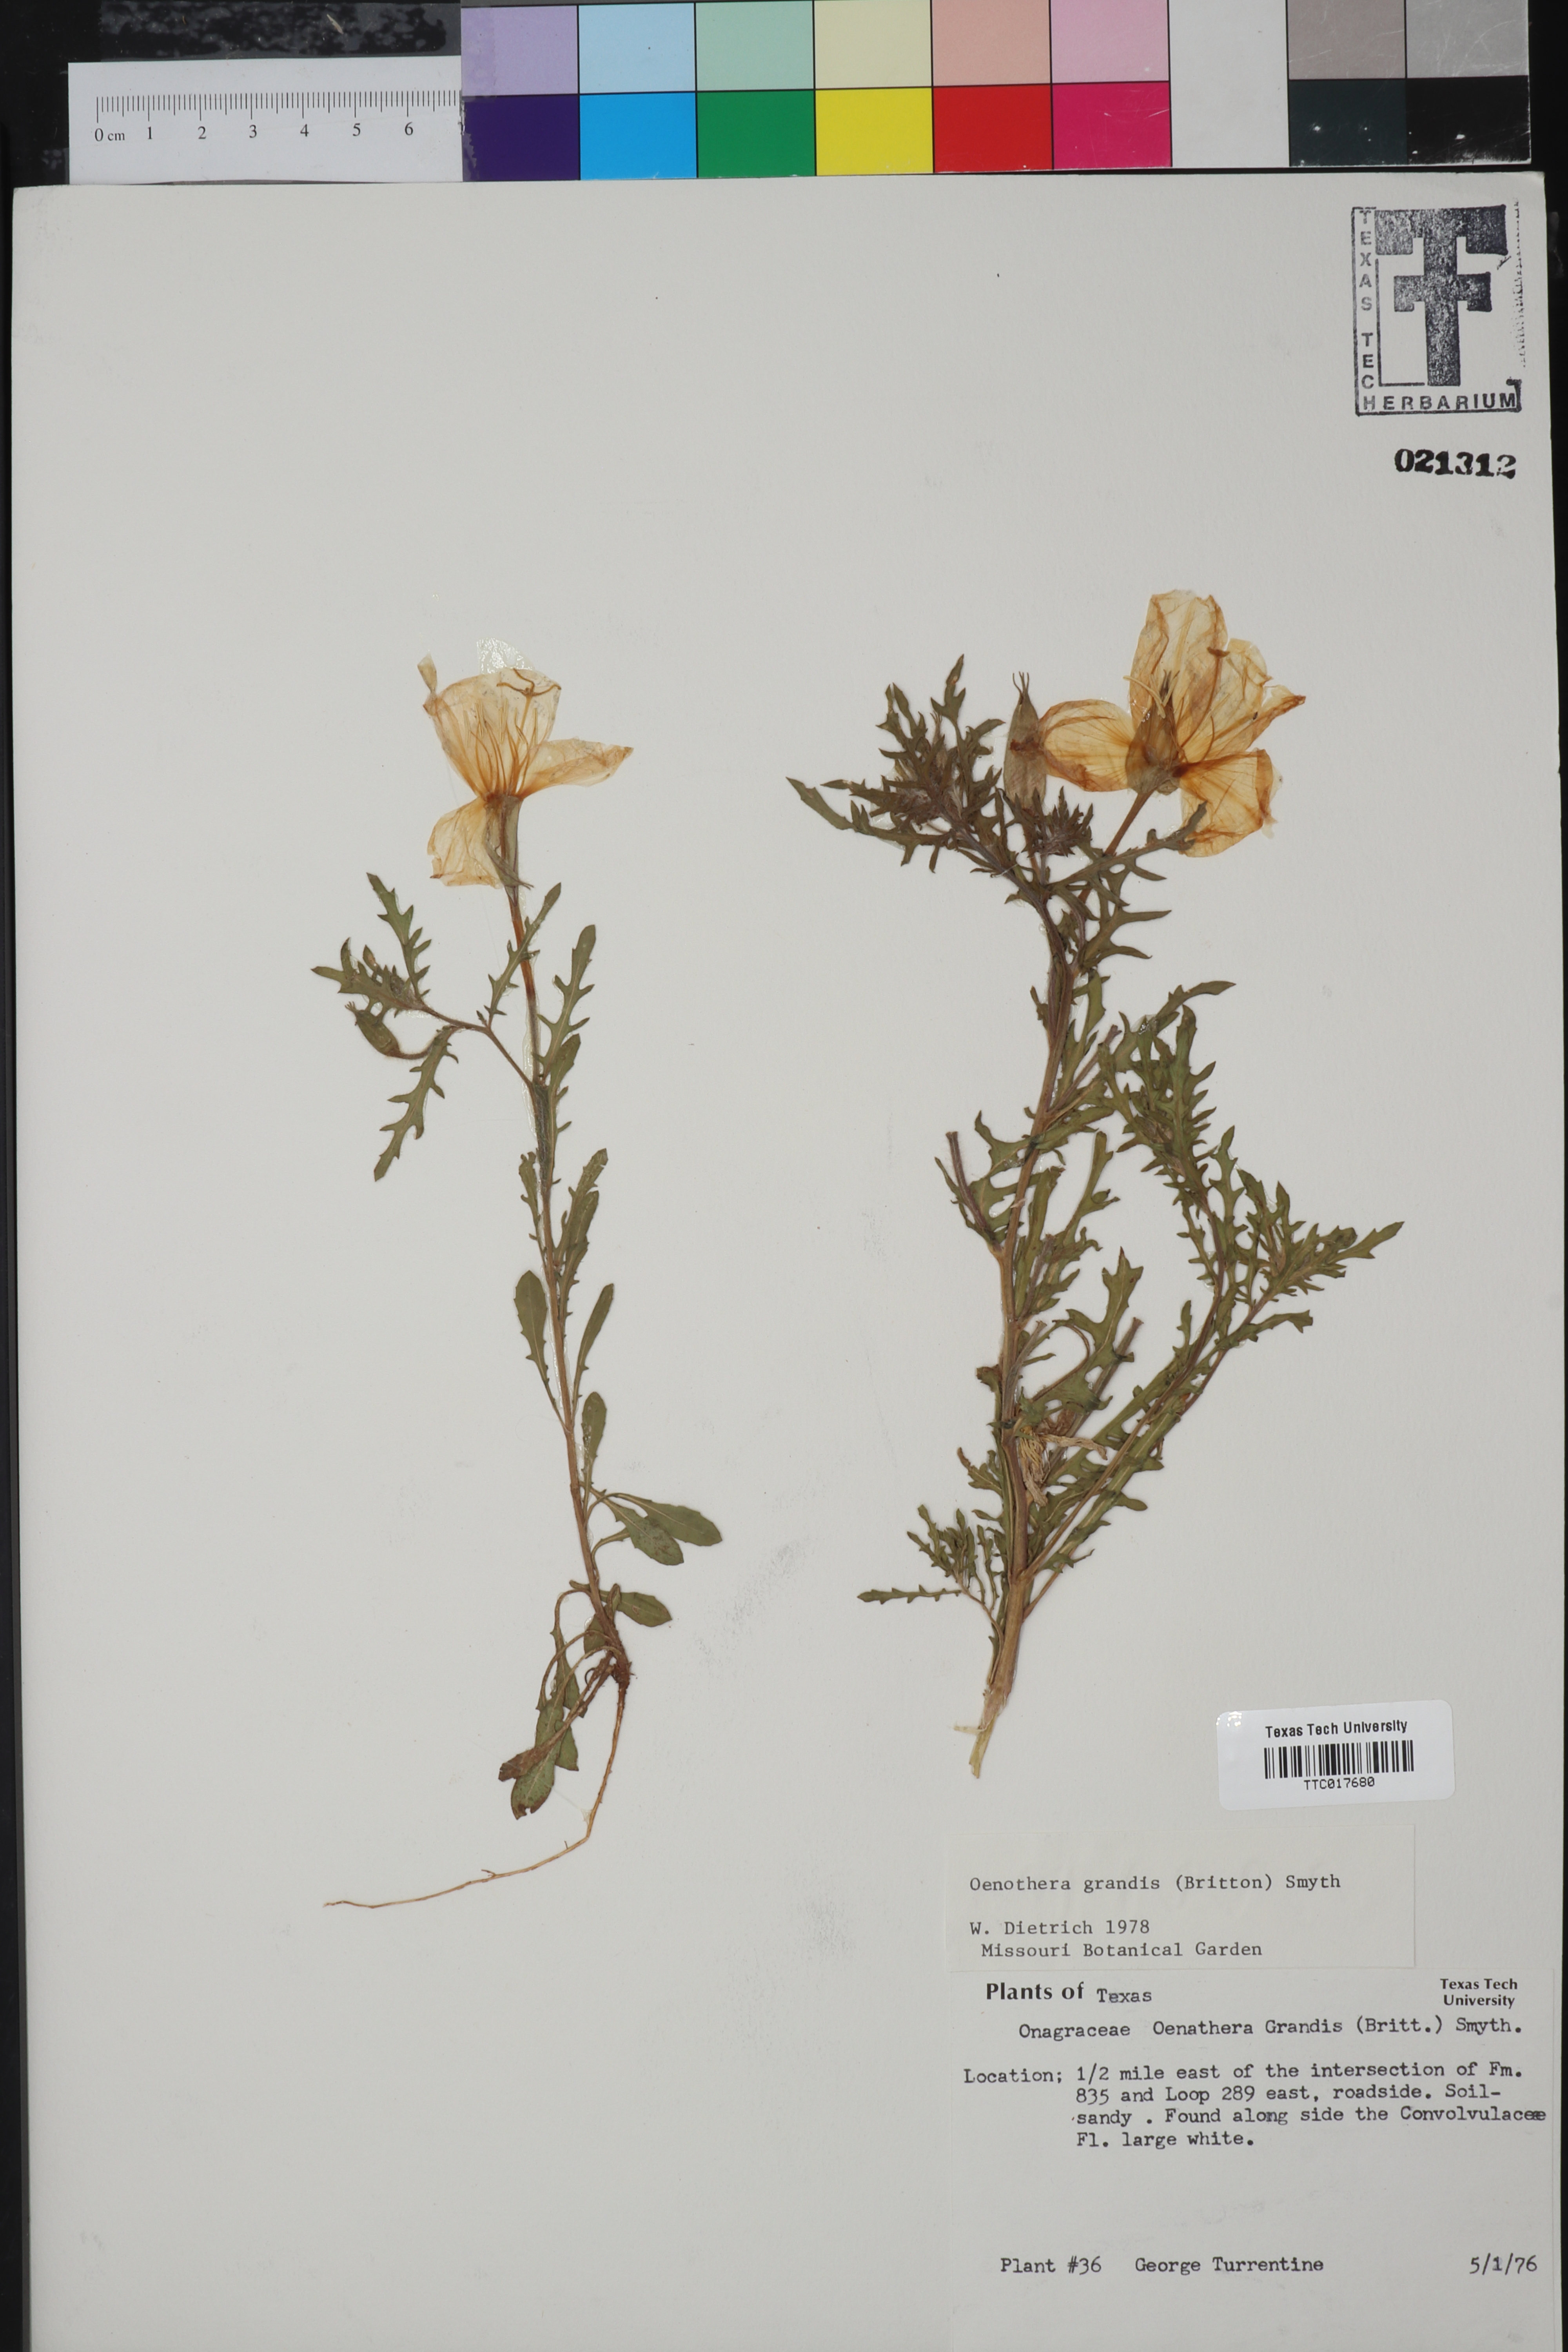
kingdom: Plantae
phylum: Tracheophyta
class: Magnoliopsida
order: Myrtales
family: Onagraceae
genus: Oenothera
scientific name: Oenothera grandis
